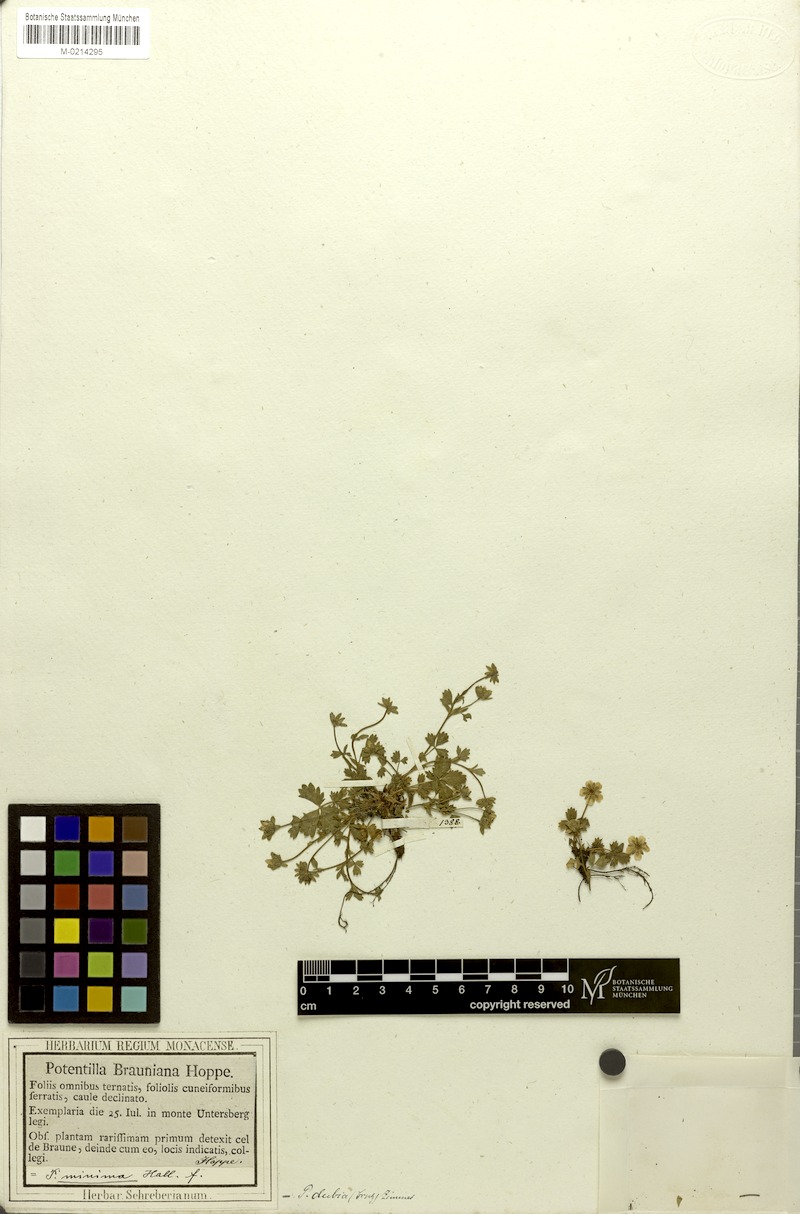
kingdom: Plantae
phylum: Tracheophyta
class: Magnoliopsida
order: Rosales
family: Rosaceae
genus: Potentilla
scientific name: Potentilla brauniana
